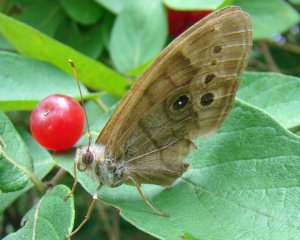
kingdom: Animalia
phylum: Arthropoda
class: Insecta
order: Lepidoptera
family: Nymphalidae
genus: Lethe
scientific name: Lethe anthedon
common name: Northern Pearly-Eye
